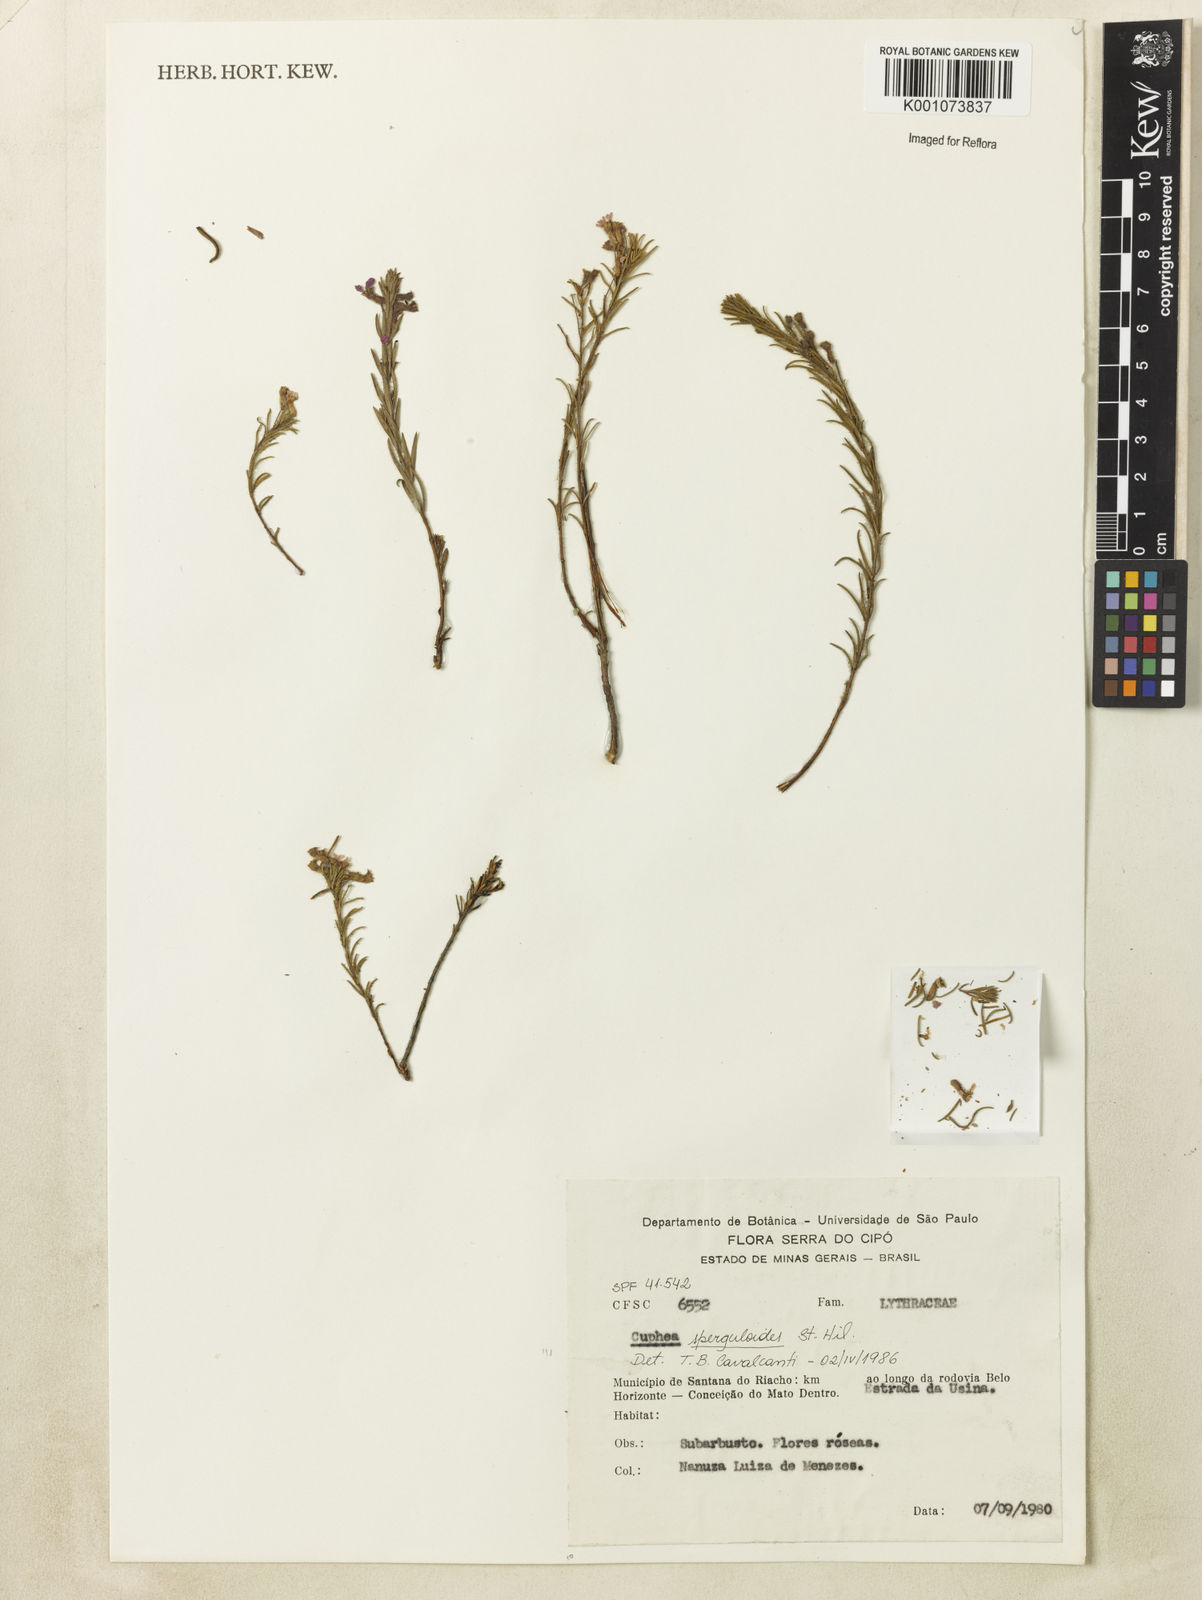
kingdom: Plantae
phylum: Tracheophyta
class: Magnoliopsida
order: Myrtales
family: Lythraceae
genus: Cuphea
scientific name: Cuphea sperguloides
